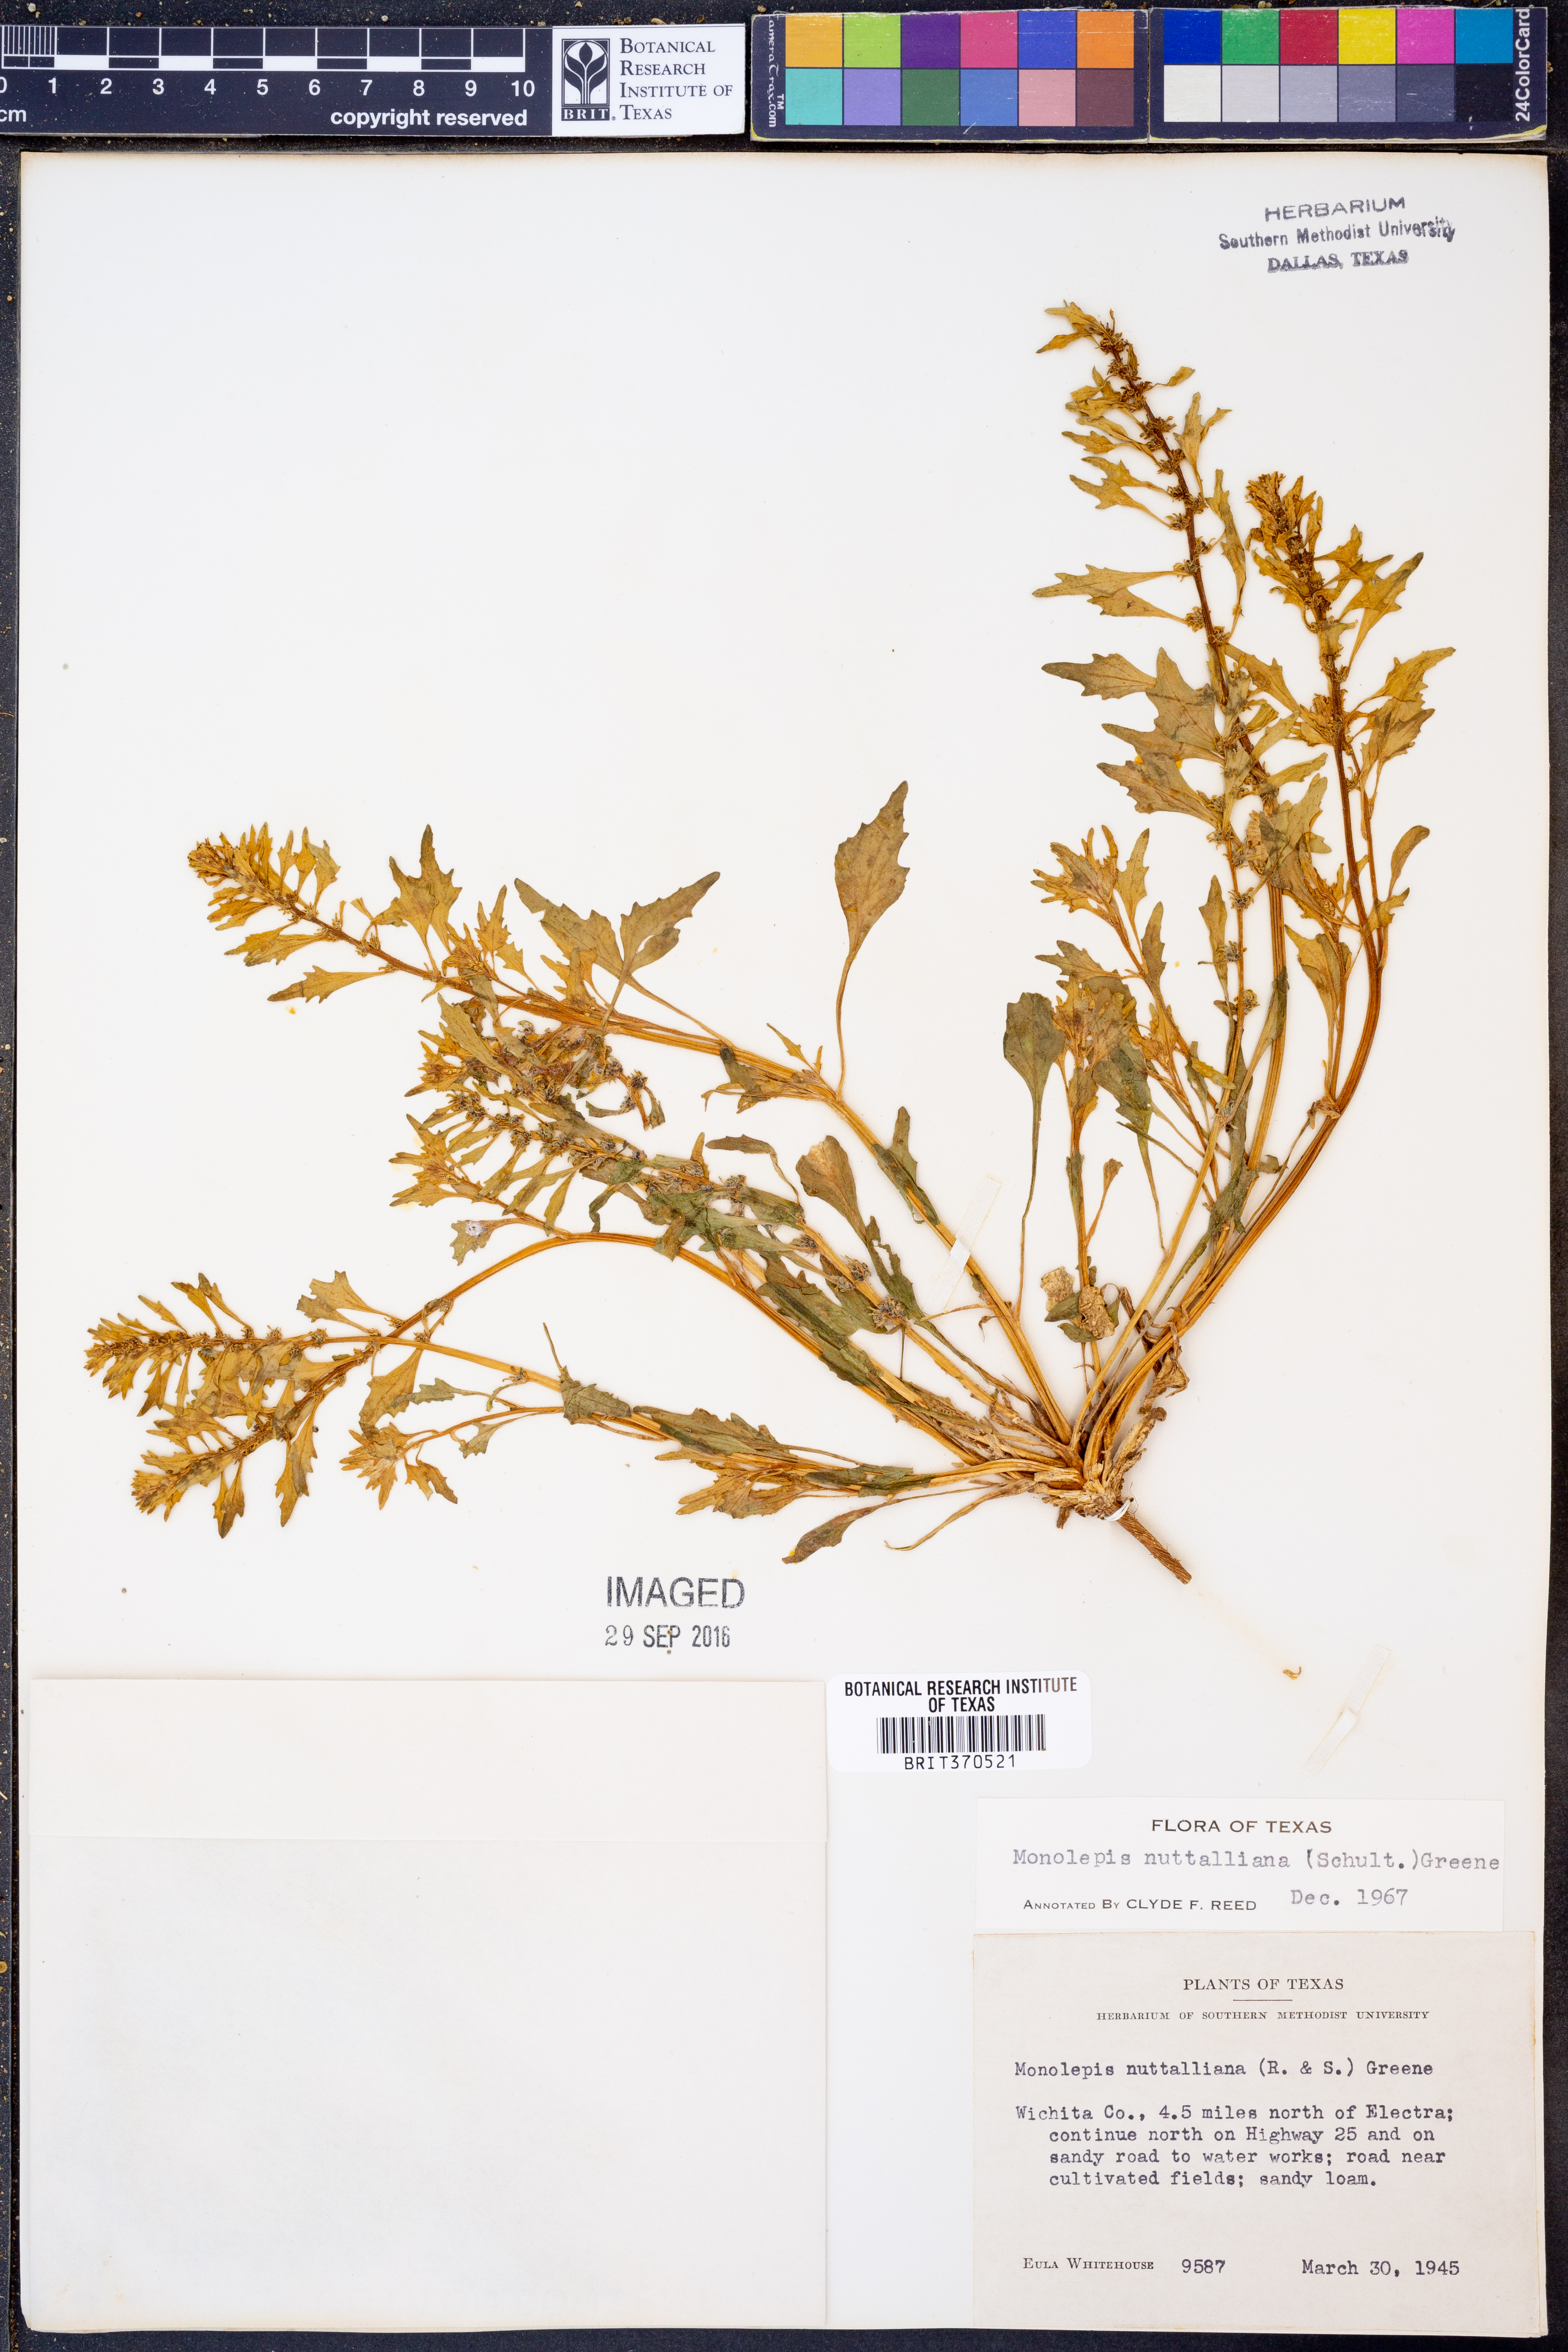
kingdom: Plantae
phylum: Tracheophyta
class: Magnoliopsida
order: Caryophyllales
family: Amaranthaceae
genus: Blitum
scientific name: Blitum nuttallianum
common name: Poverty-weed
